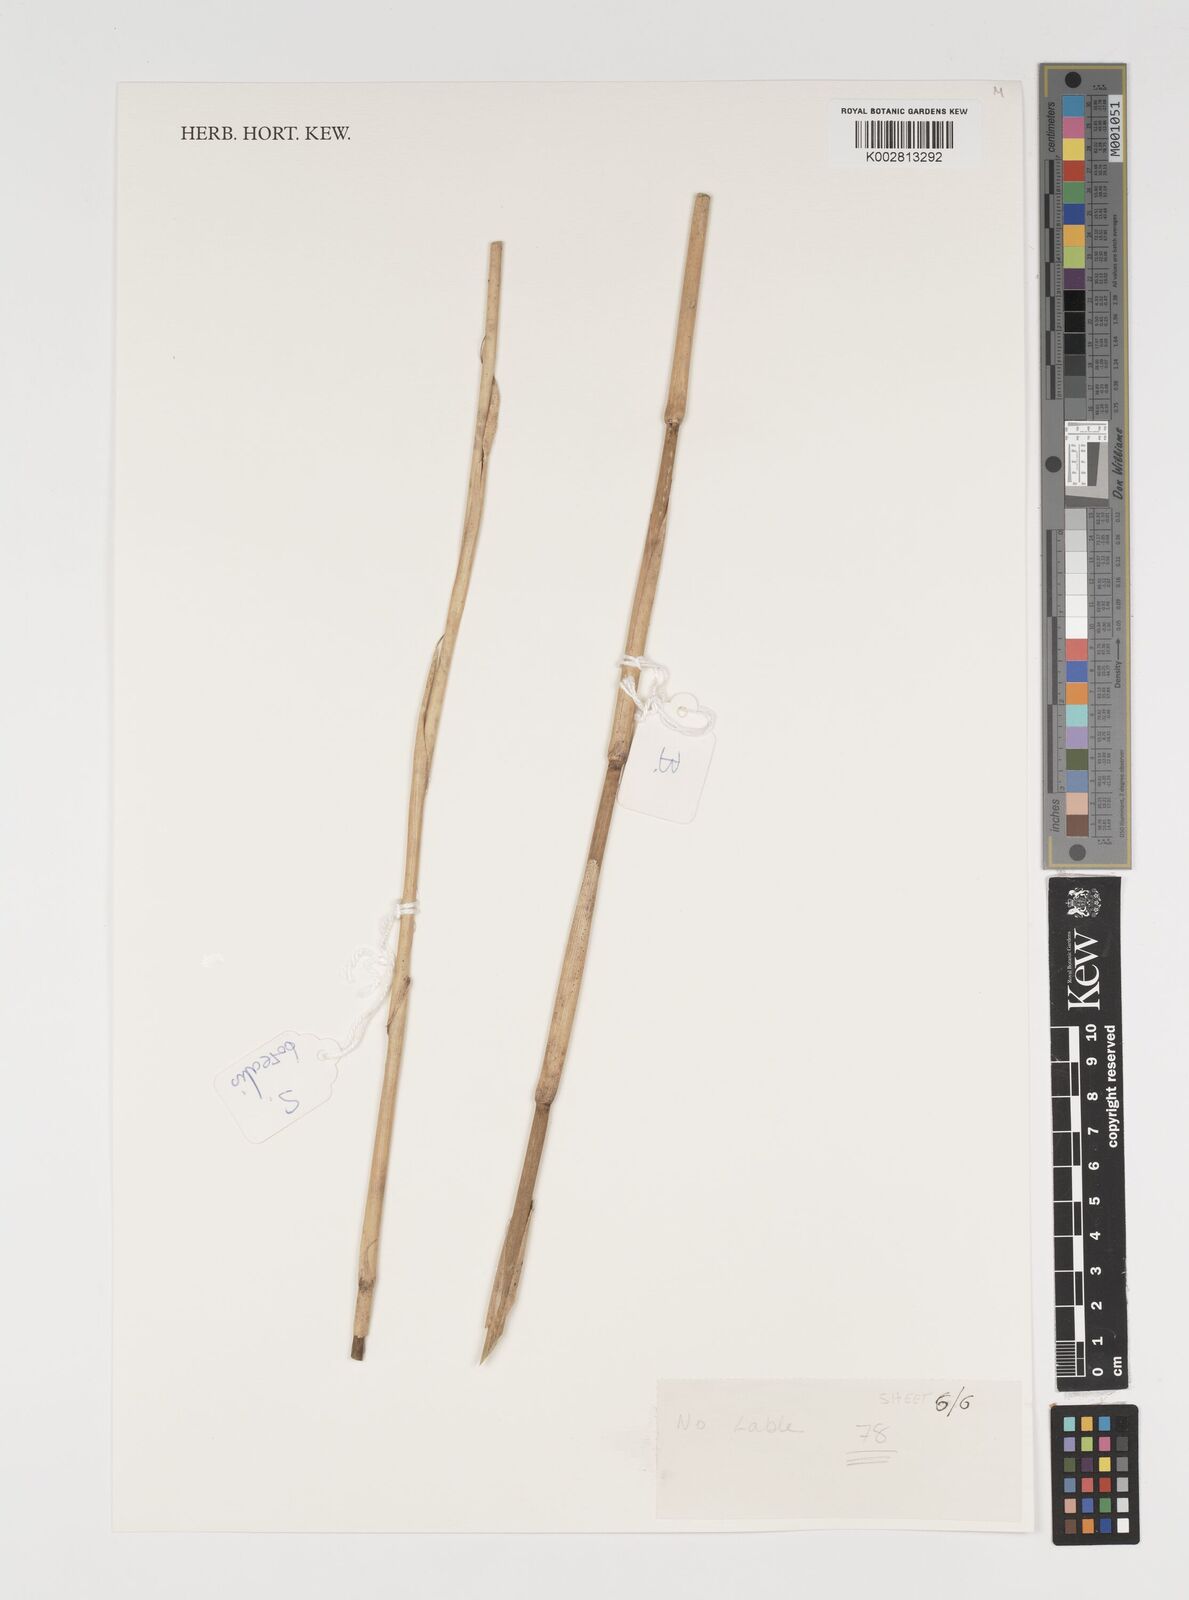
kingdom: Plantae
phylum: Tracheophyta
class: Liliopsida
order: Poales
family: Poaceae
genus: Sasamorpha
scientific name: Sasamorpha borealis
